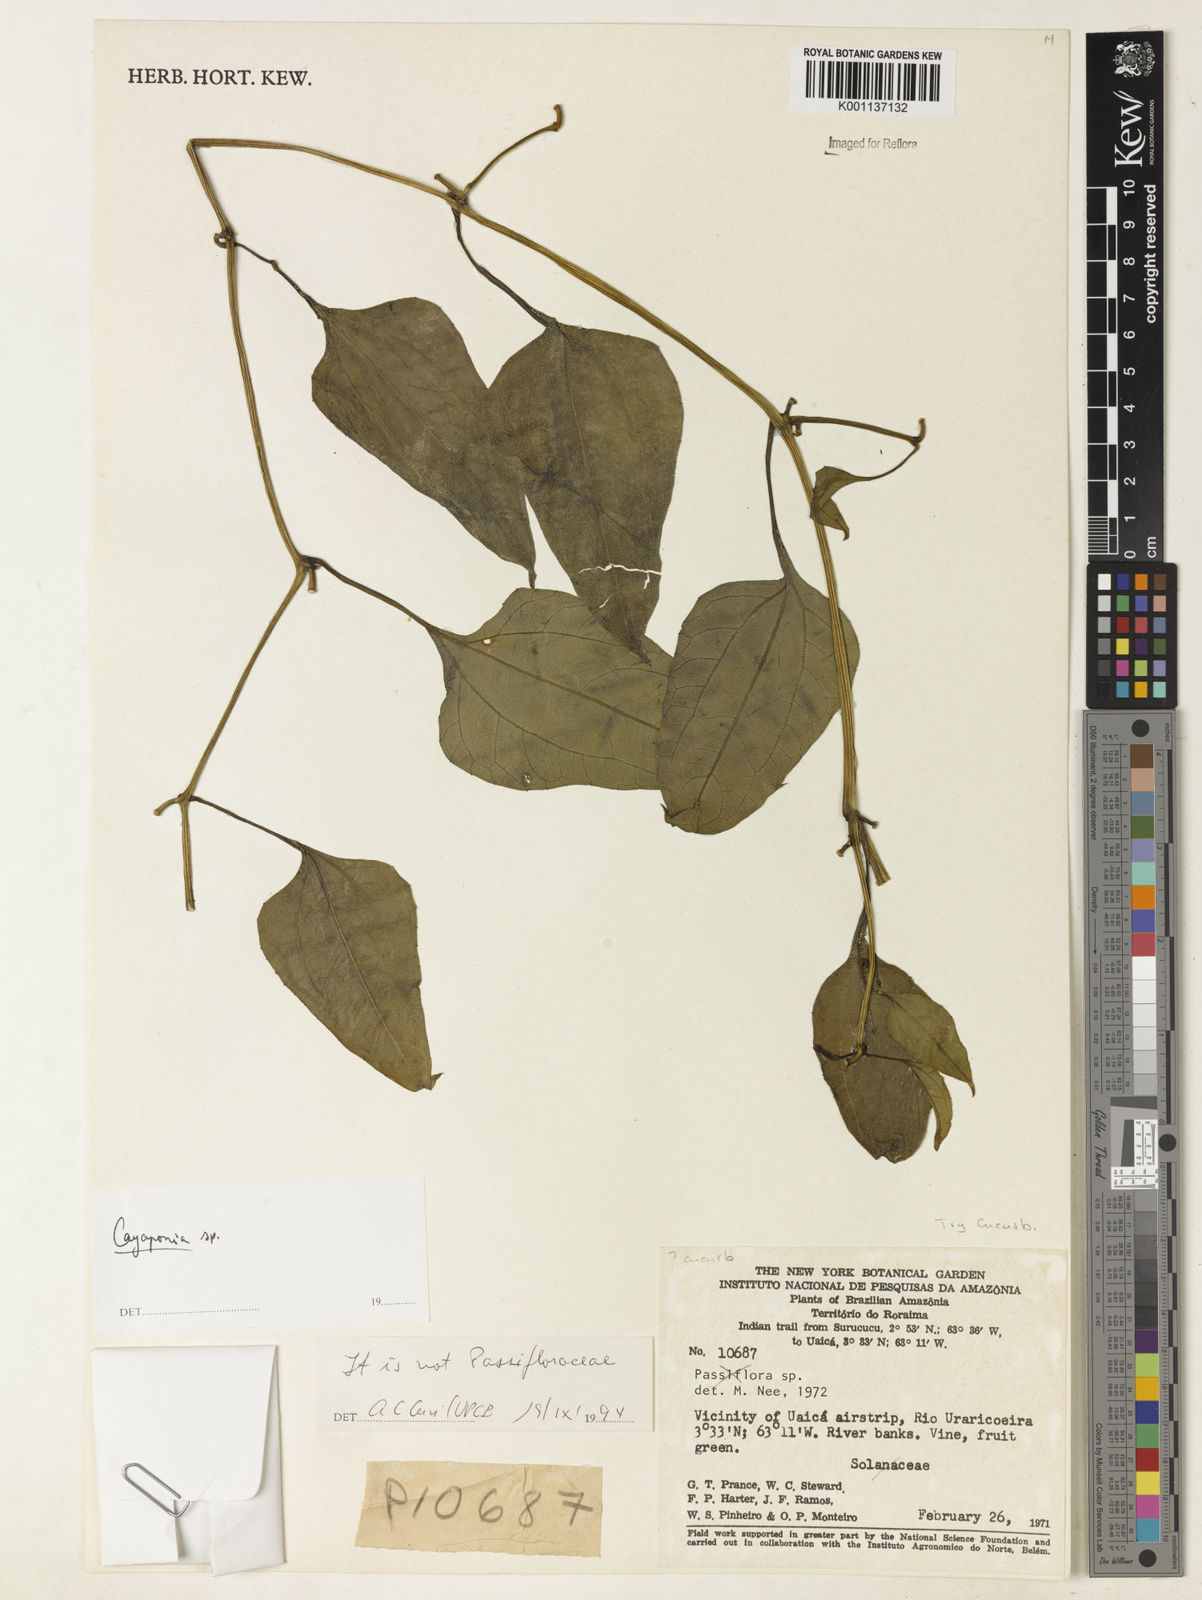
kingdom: Plantae
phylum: Tracheophyta
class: Magnoliopsida
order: Cucurbitales
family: Cucurbitaceae
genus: Cayaponia
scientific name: Cayaponia
